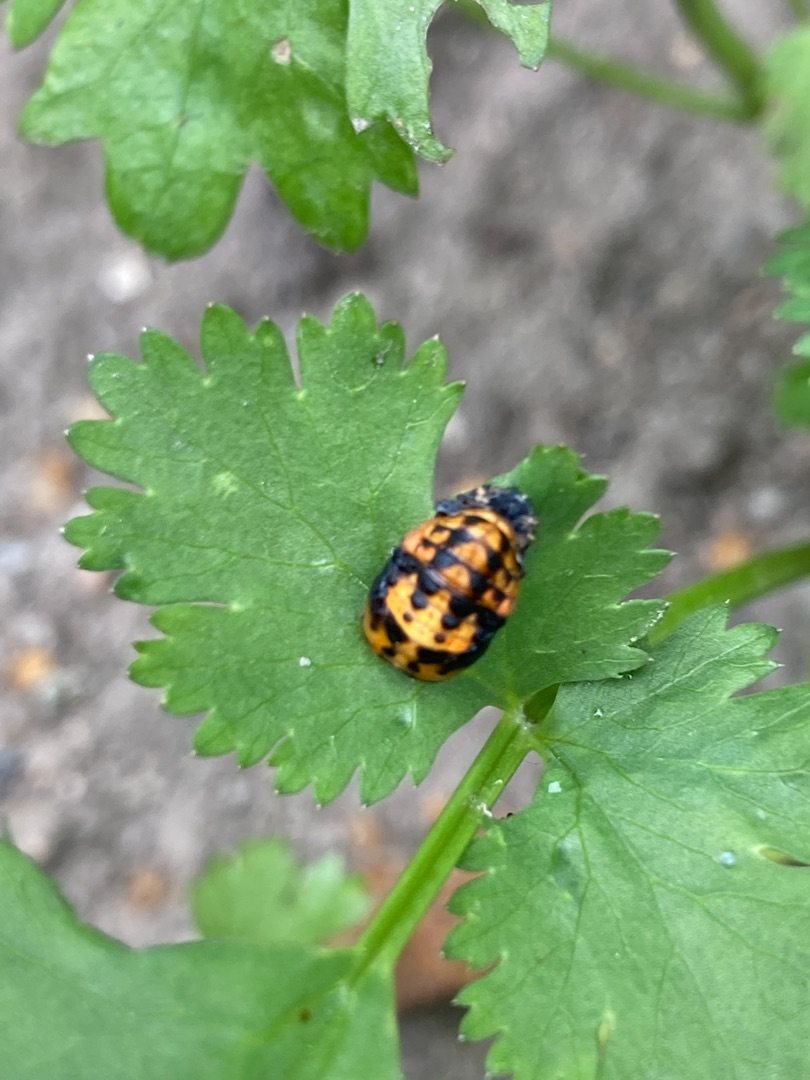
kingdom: Animalia
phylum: Arthropoda
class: Insecta
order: Coleoptera
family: Coccinellidae
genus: Harmonia
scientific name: Harmonia axyridis
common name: Harlekinmariehøne
